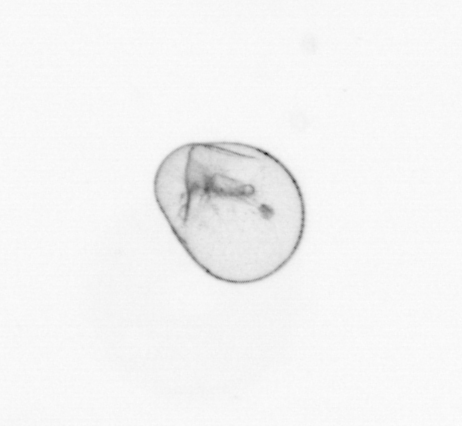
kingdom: Chromista
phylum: Myzozoa
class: Dinophyceae
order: Noctilucales
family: Noctilucaceae
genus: Noctiluca
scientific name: Noctiluca scintillans
